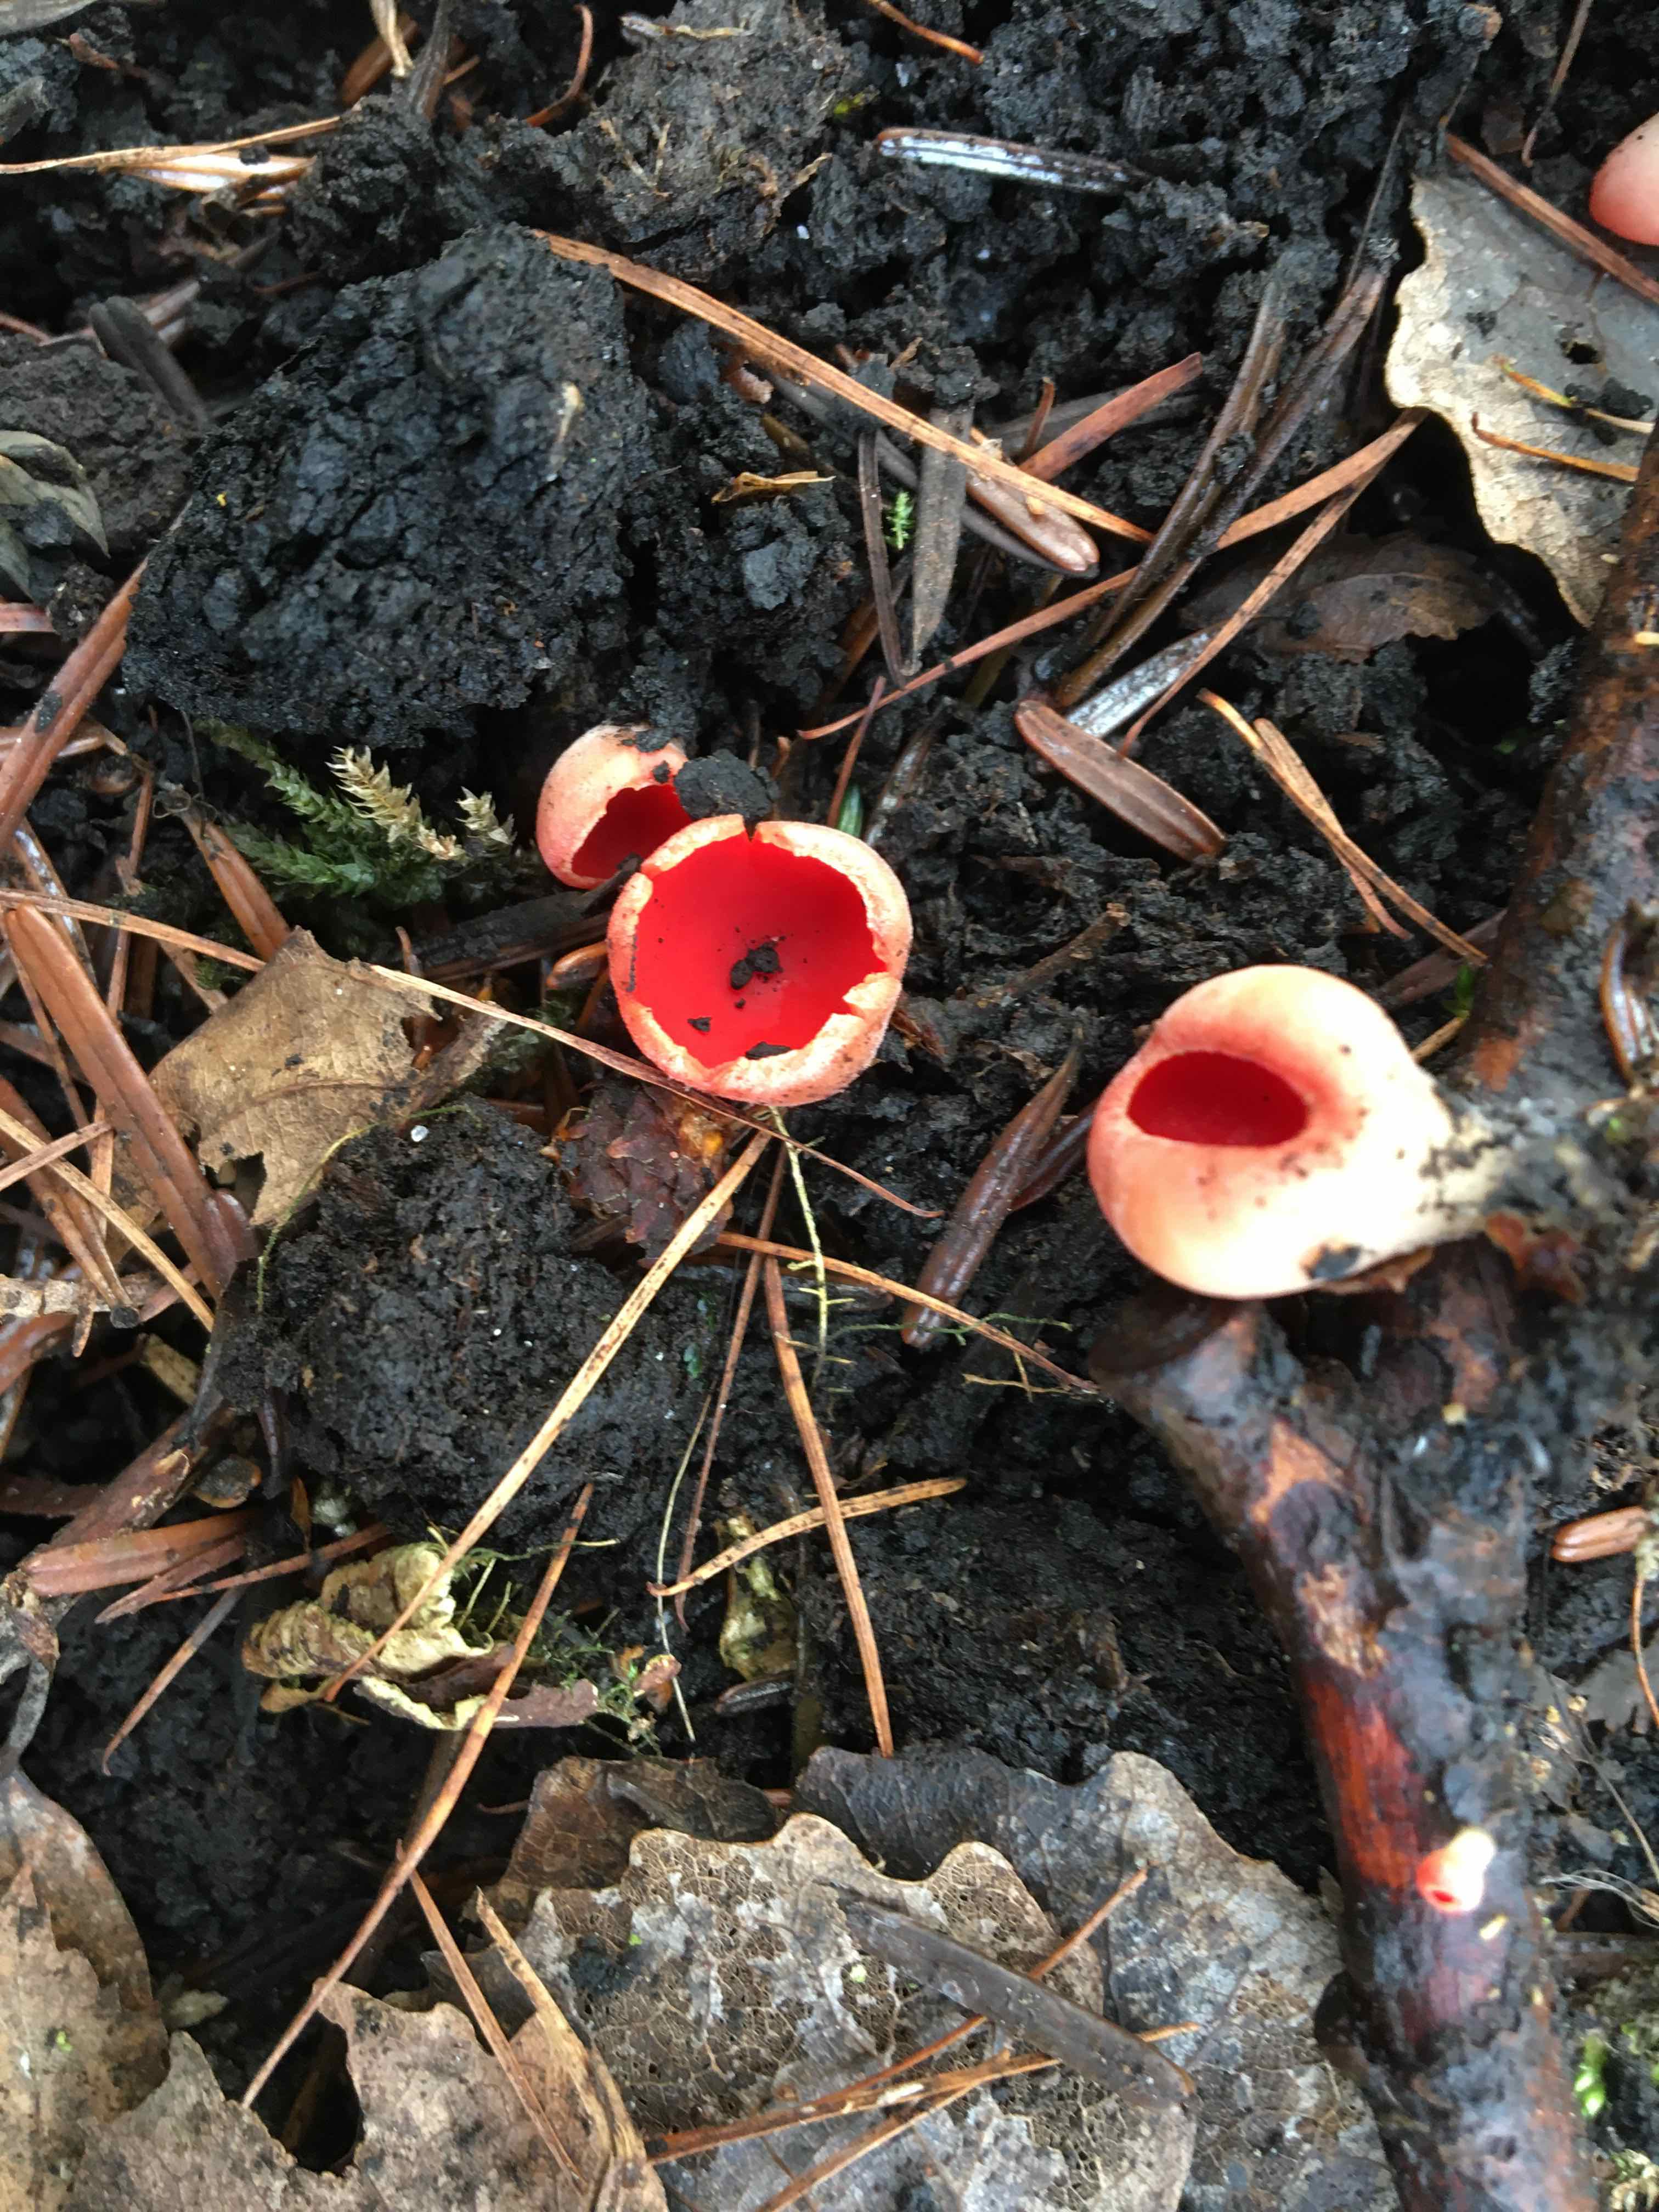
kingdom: Fungi
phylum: Ascomycota
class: Pezizomycetes
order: Pezizales
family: Sarcoscyphaceae
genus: Sarcoscypha
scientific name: Sarcoscypha austriaca
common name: krølhåret pragtbæger
